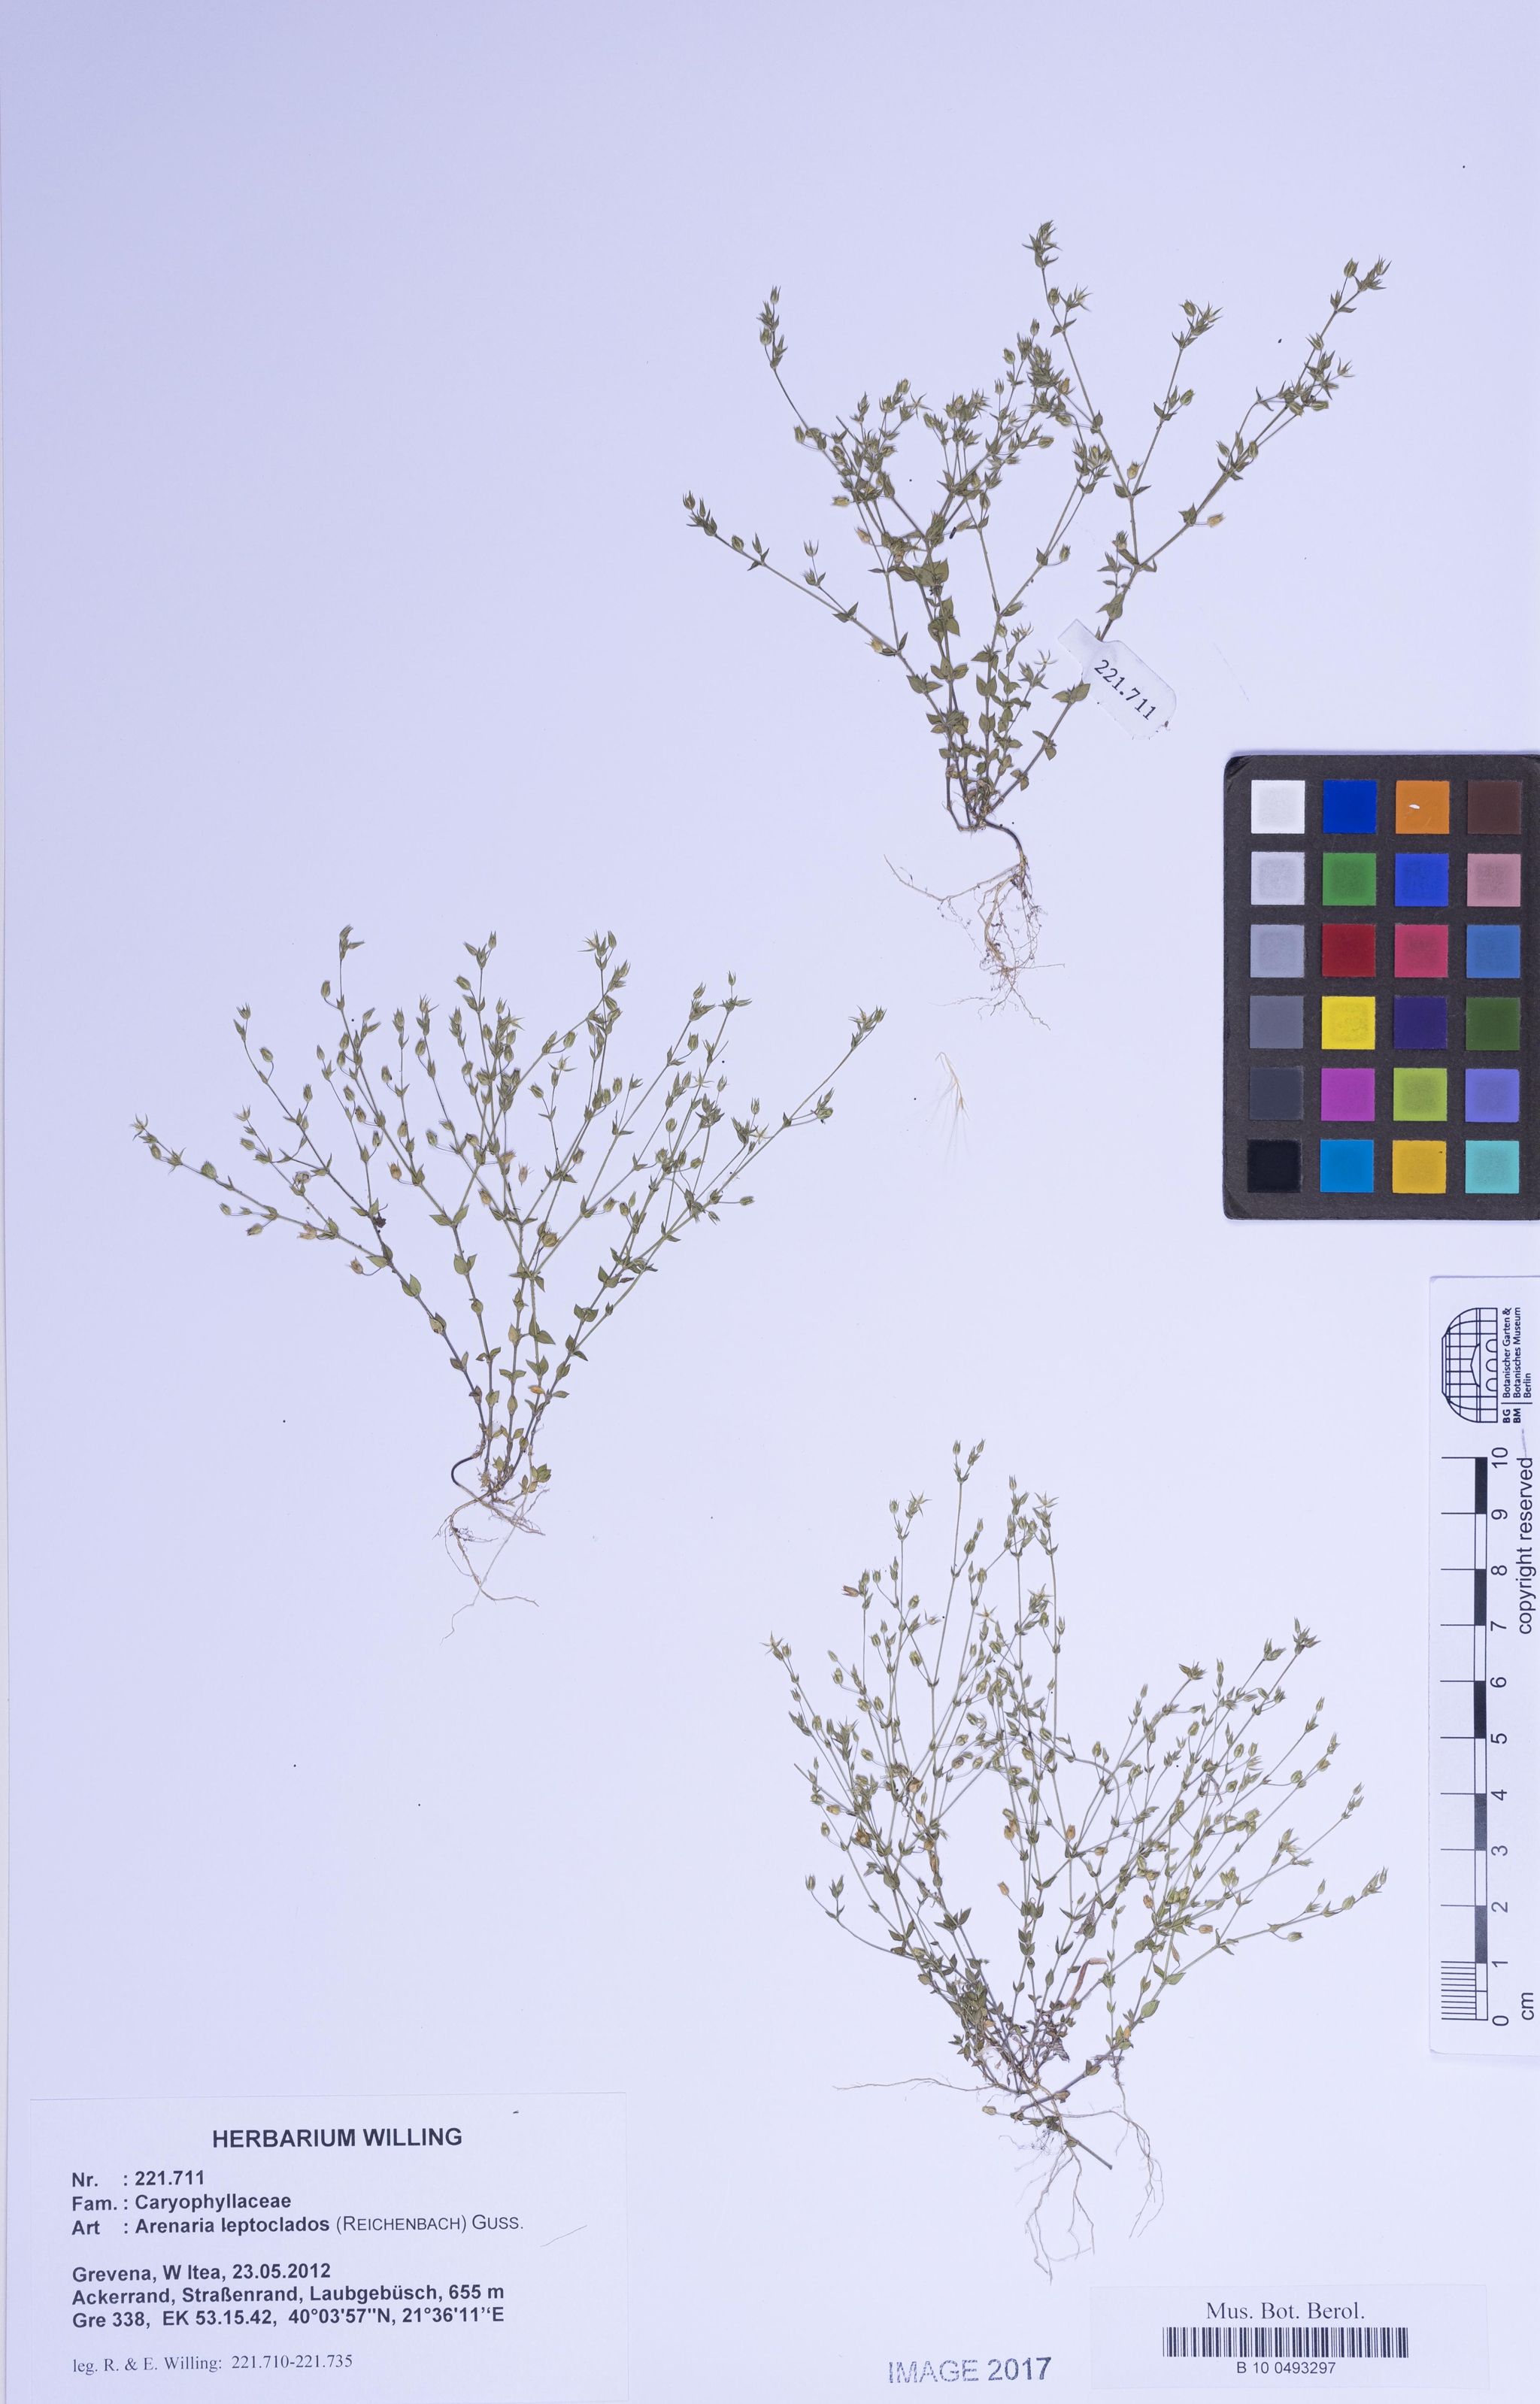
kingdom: Plantae
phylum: Tracheophyta
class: Magnoliopsida
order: Caryophyllales
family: Caryophyllaceae
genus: Arenaria
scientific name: Arenaria leptoclados
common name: Thyme-leaved sandwort
